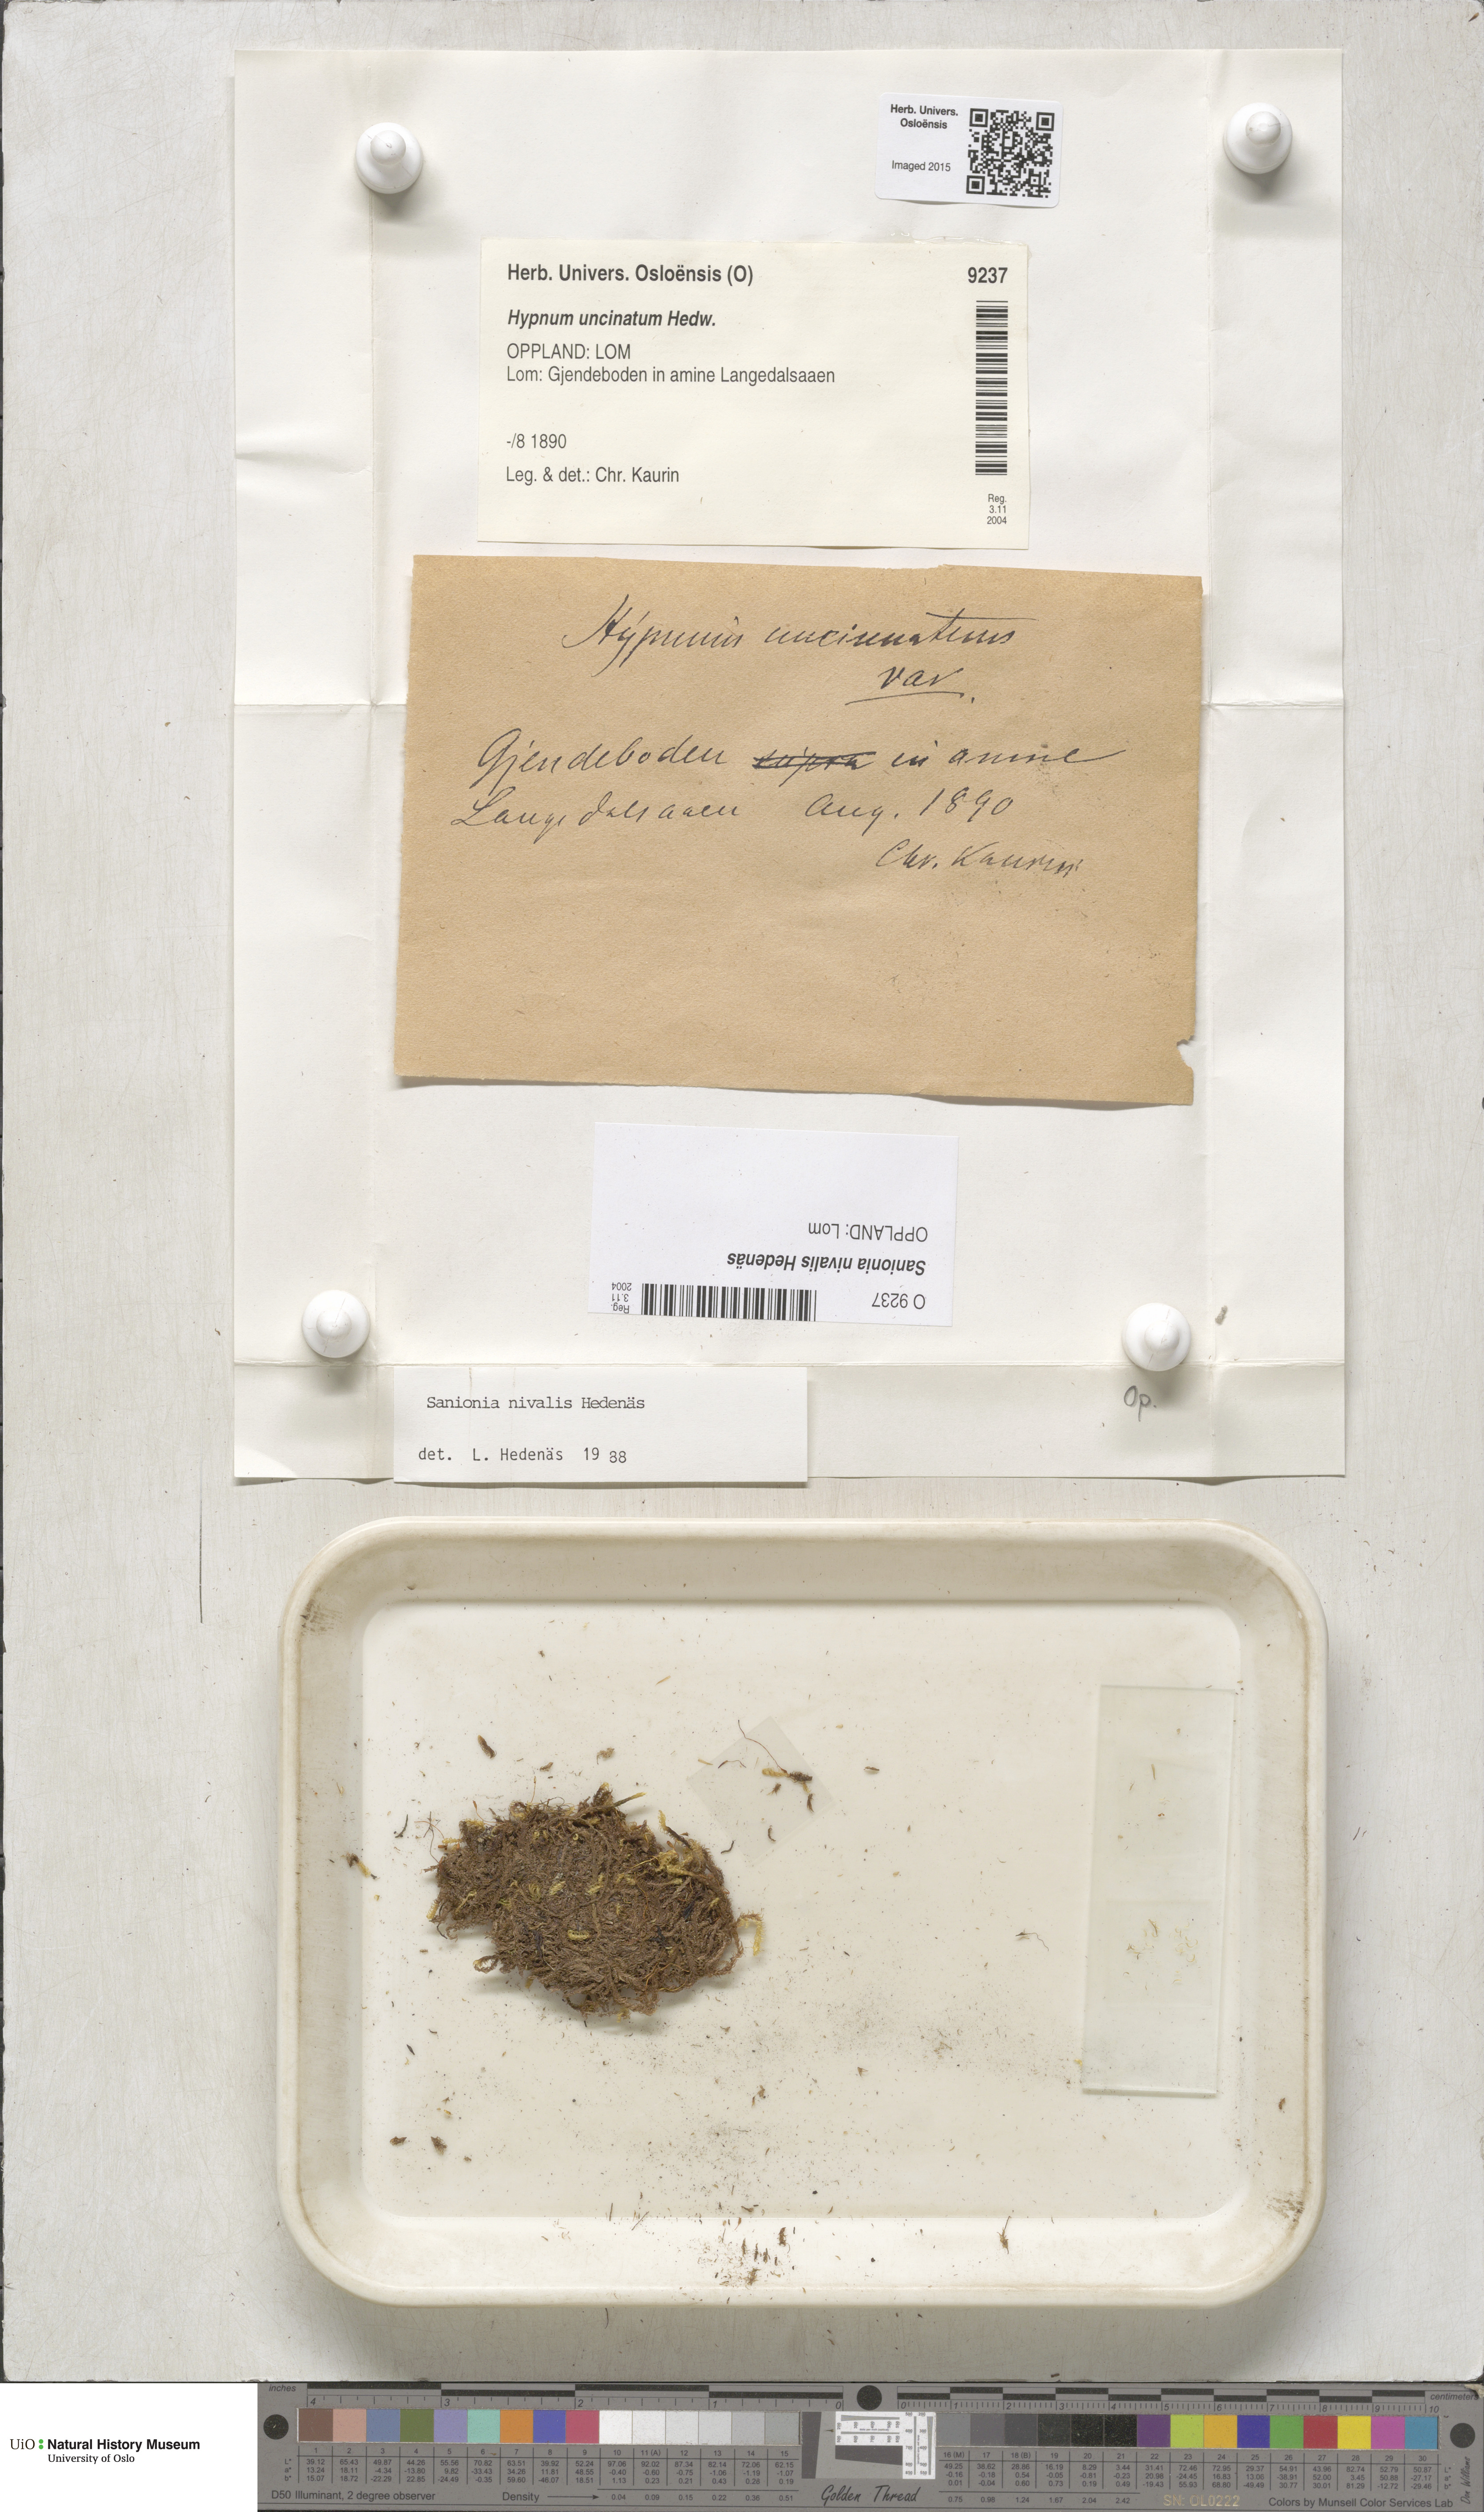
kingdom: Plantae
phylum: Bryophyta
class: Bryopsida
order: Hypnales
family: Scorpidiaceae
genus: Sanionia
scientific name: Sanionia nivalis
